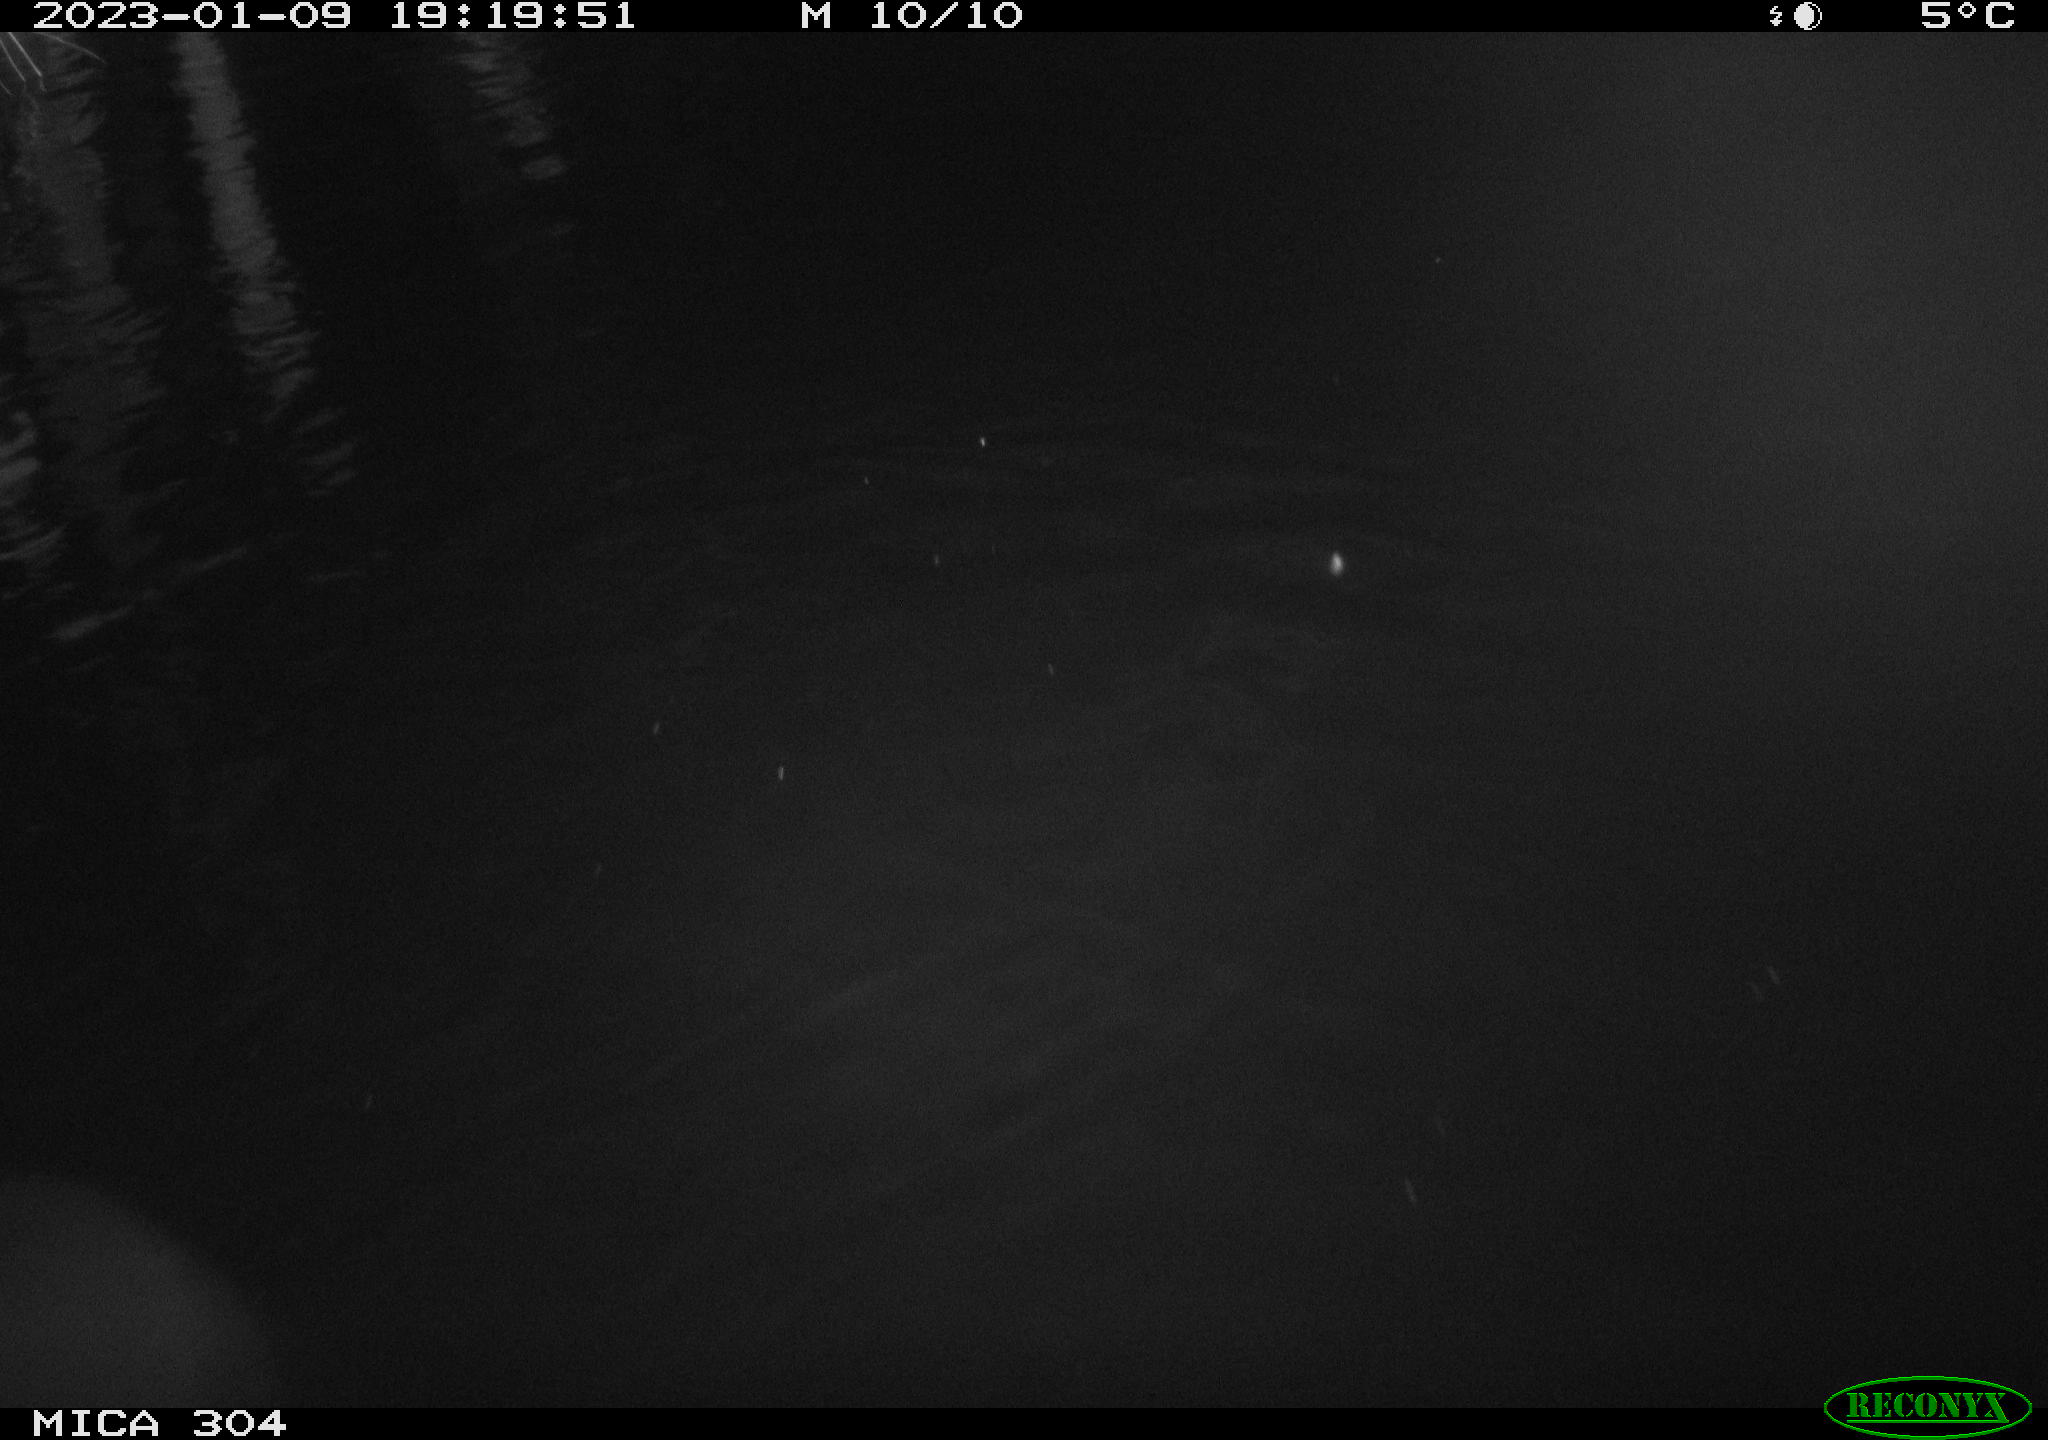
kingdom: Animalia
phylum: Chordata
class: Mammalia
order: Rodentia
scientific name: Rodentia
